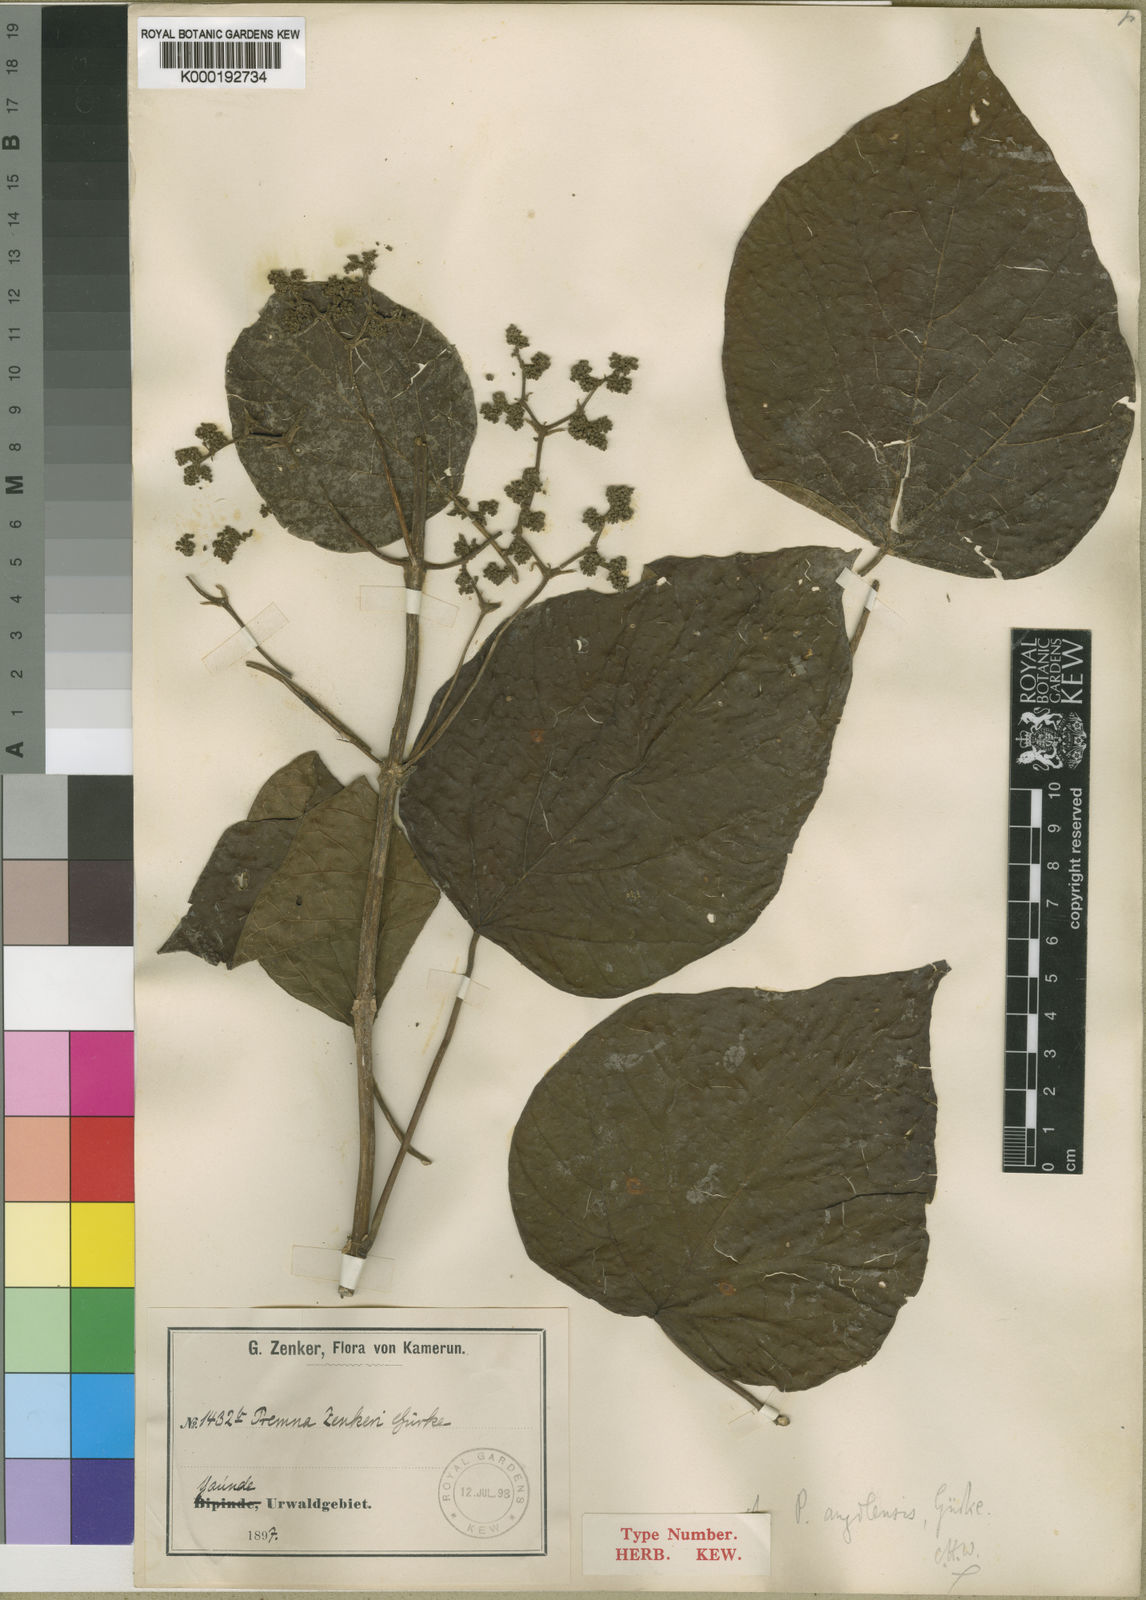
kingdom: Plantae
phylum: Tracheophyta
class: Magnoliopsida
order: Lamiales
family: Lamiaceae
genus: Premna
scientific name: Premna
